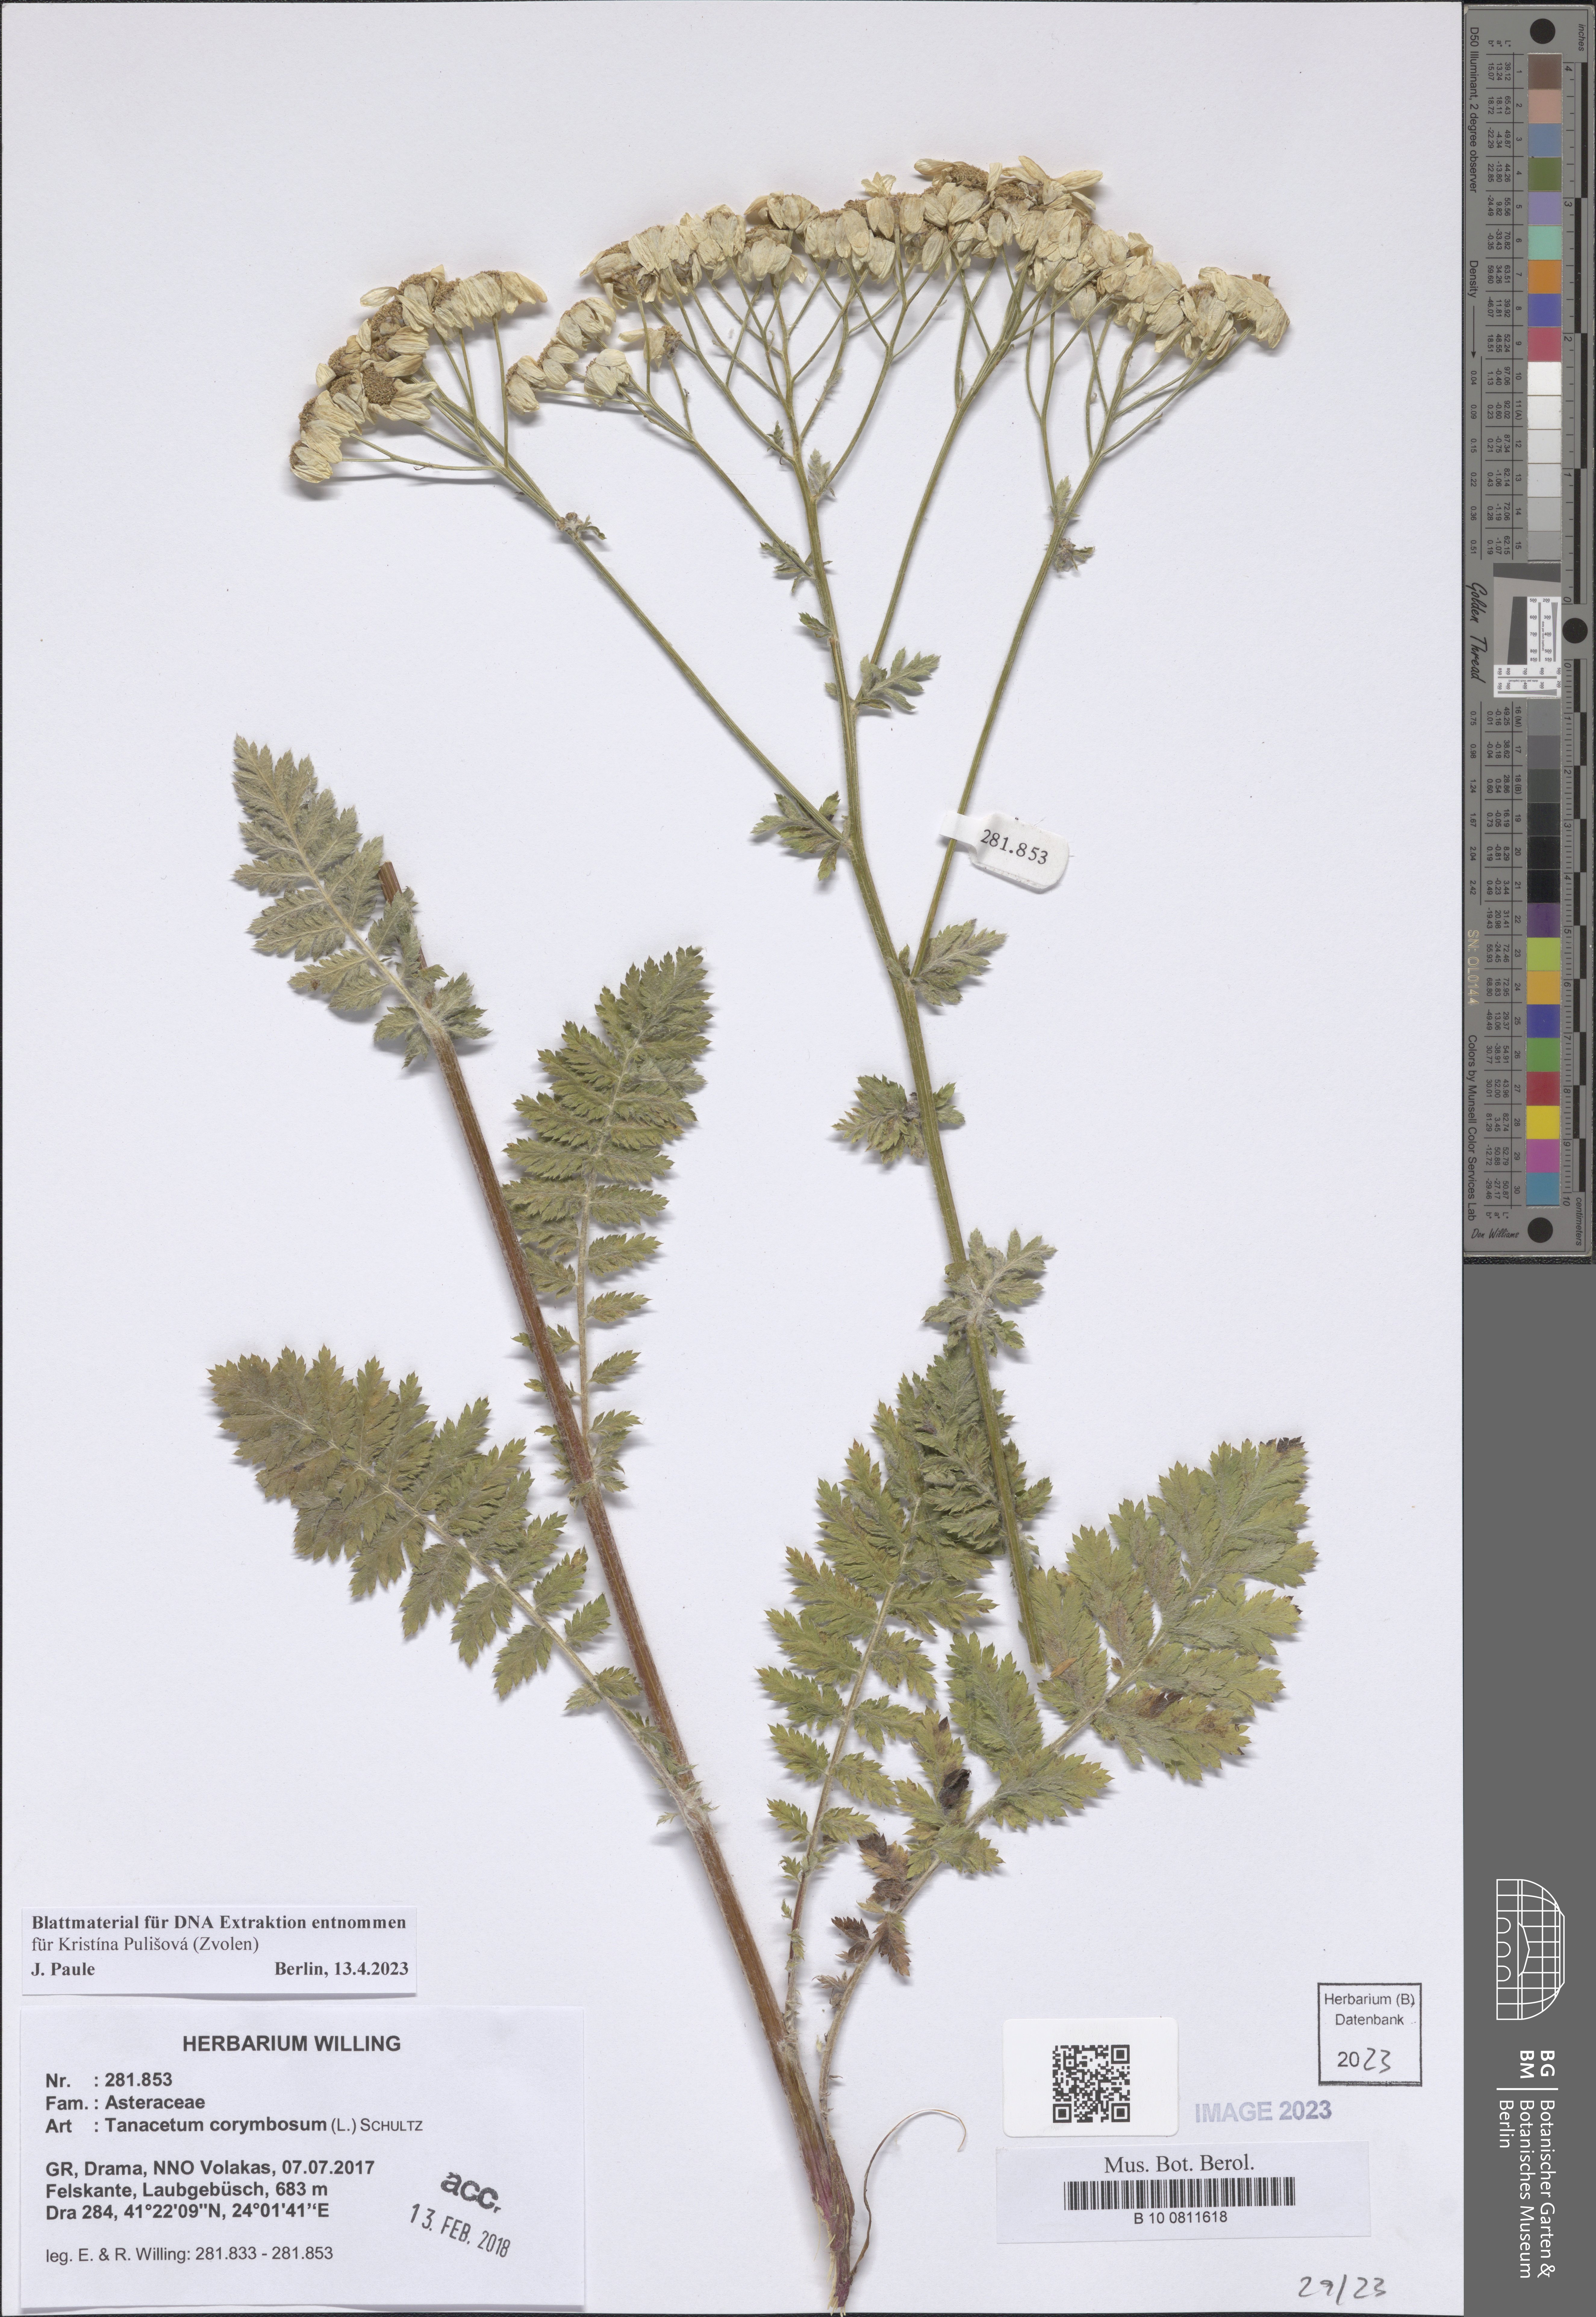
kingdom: Plantae
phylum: Tracheophyta
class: Magnoliopsida
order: Asterales
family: Asteraceae
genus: Tanacetum
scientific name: Tanacetum corymbosum
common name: Scentless feverfew
